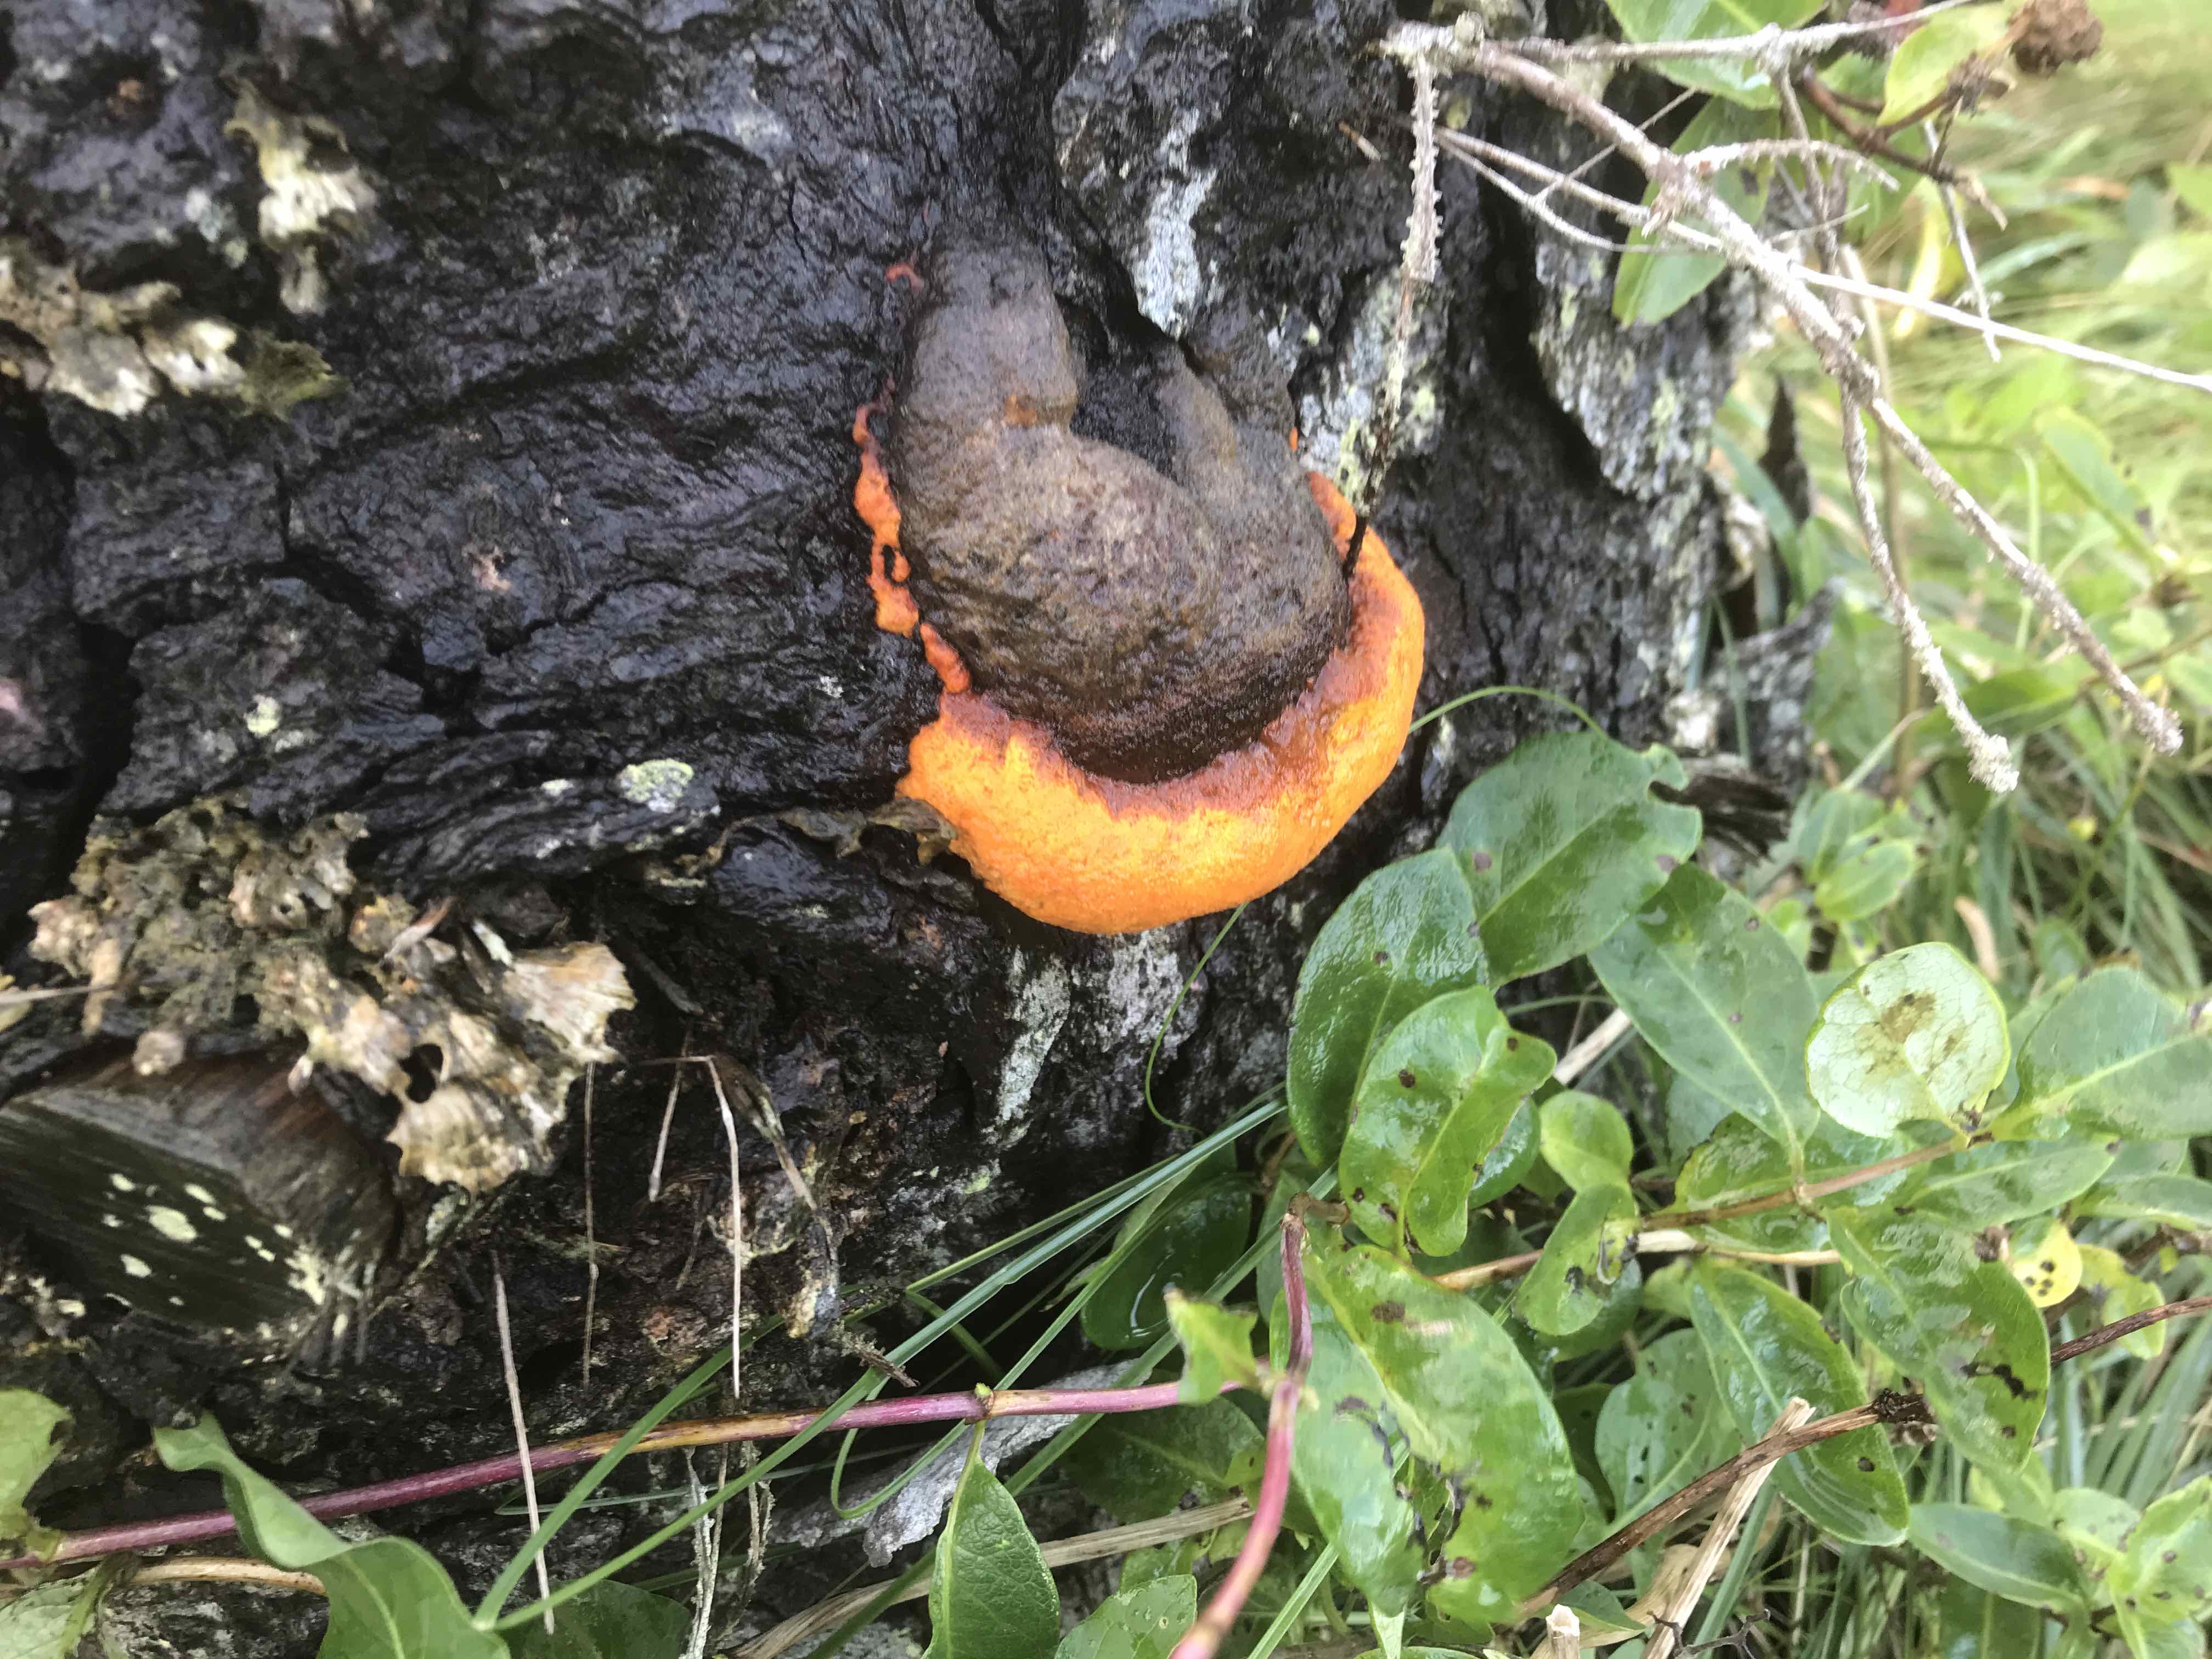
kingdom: Fungi
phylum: Basidiomycota
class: Agaricomycetes
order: Polyporales
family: Fomitopsidaceae
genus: Fomitopsis
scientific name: Fomitopsis pinicola
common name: randbæltet hovporesvamp
